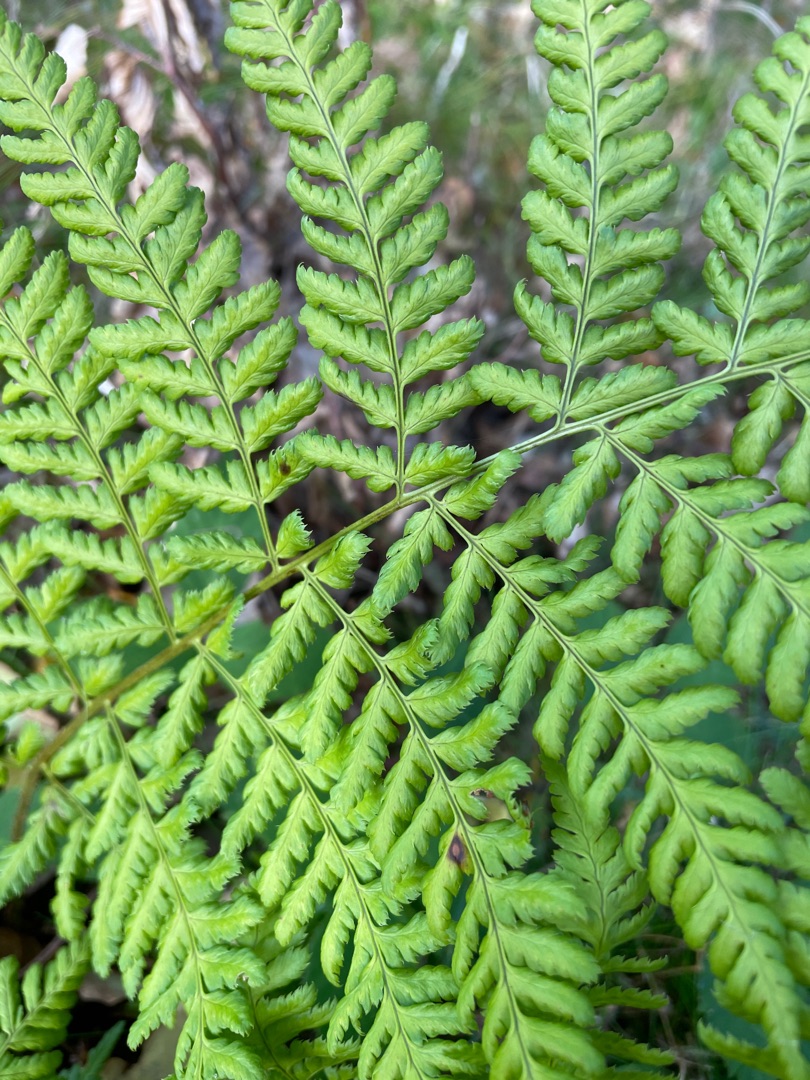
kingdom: Plantae
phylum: Tracheophyta
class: Polypodiopsida
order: Polypodiales
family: Dryopteridaceae
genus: Dryopteris
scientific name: Dryopteris
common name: Mangeløv (Dryopteris-slægten)
